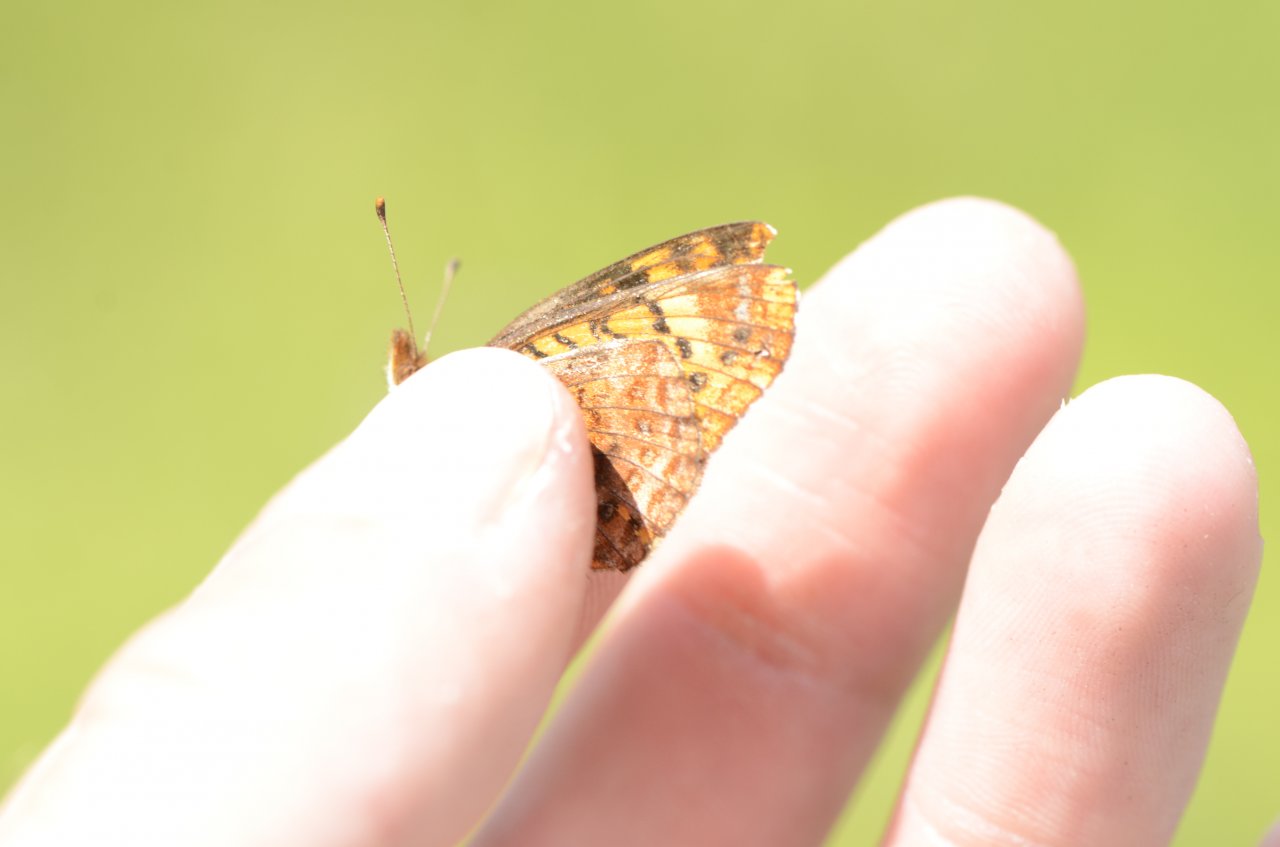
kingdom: Animalia
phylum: Arthropoda
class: Insecta
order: Lepidoptera
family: Nymphalidae
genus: Clossiana
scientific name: Clossiana toddi
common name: Meadow Fritillary
